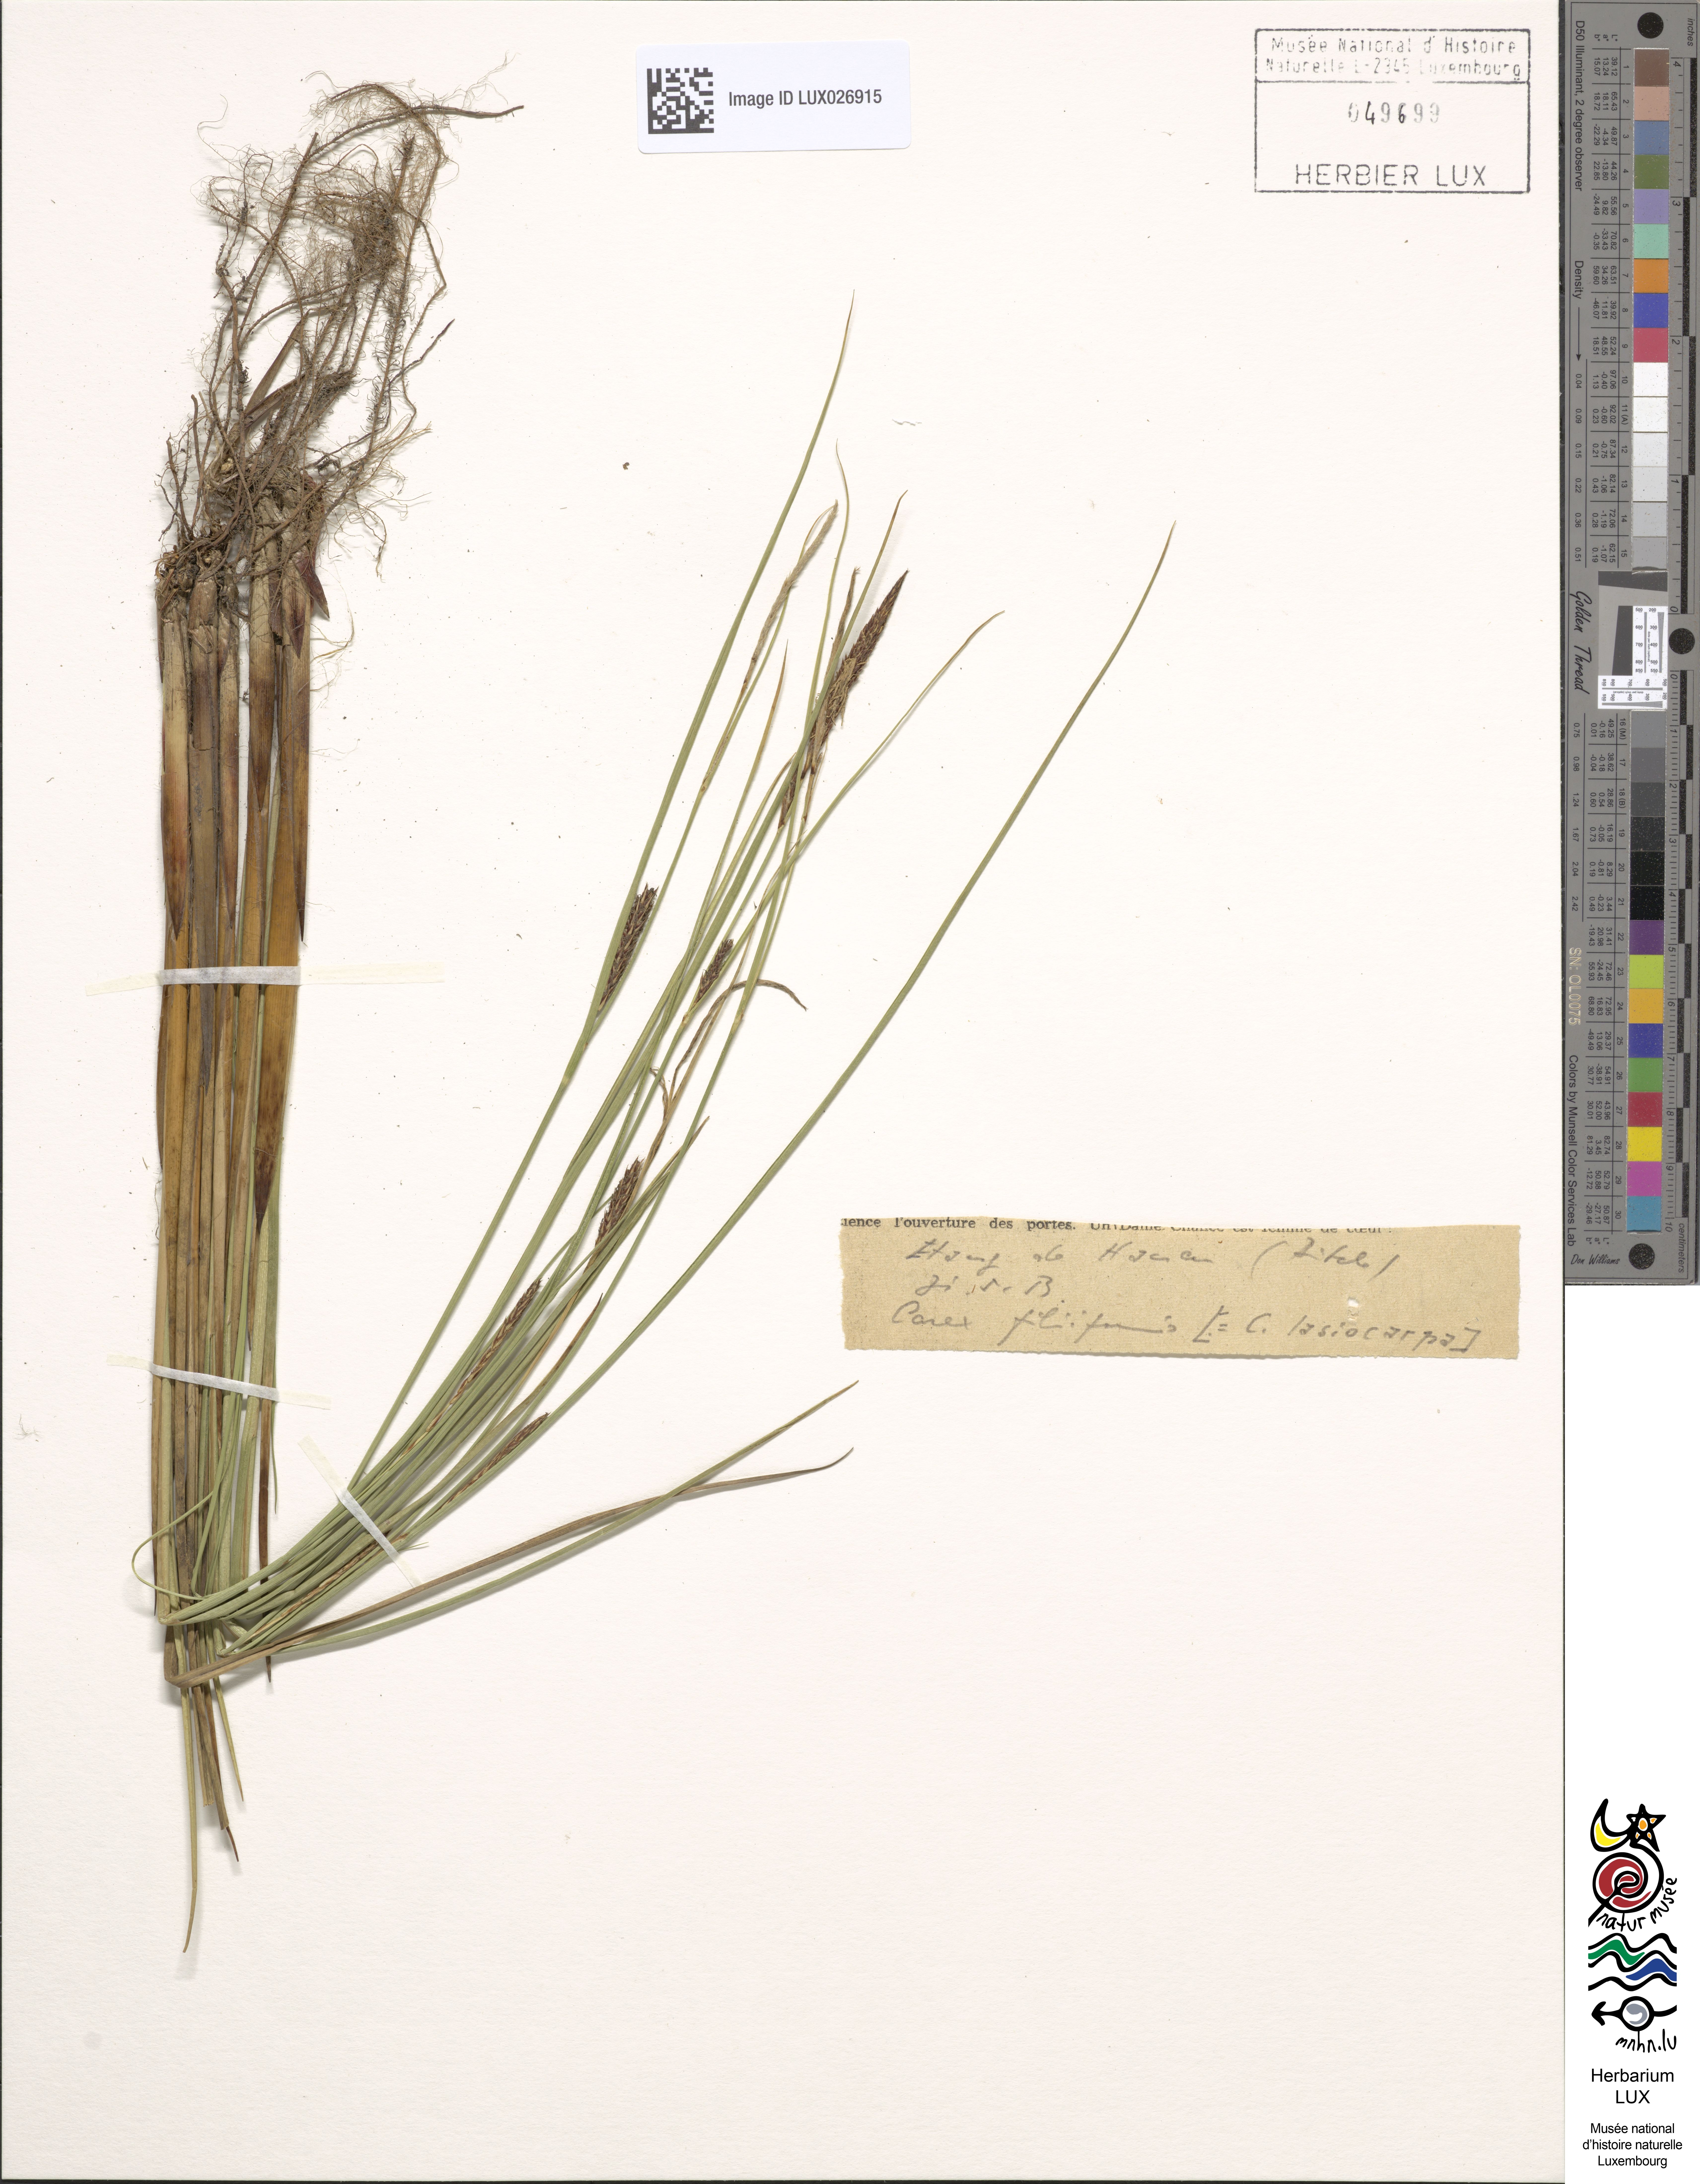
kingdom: Plantae
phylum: Tracheophyta
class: Liliopsida
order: Poales
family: Cyperaceae
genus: Carex
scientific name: Carex lasiocarpa
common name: Slender sedge
